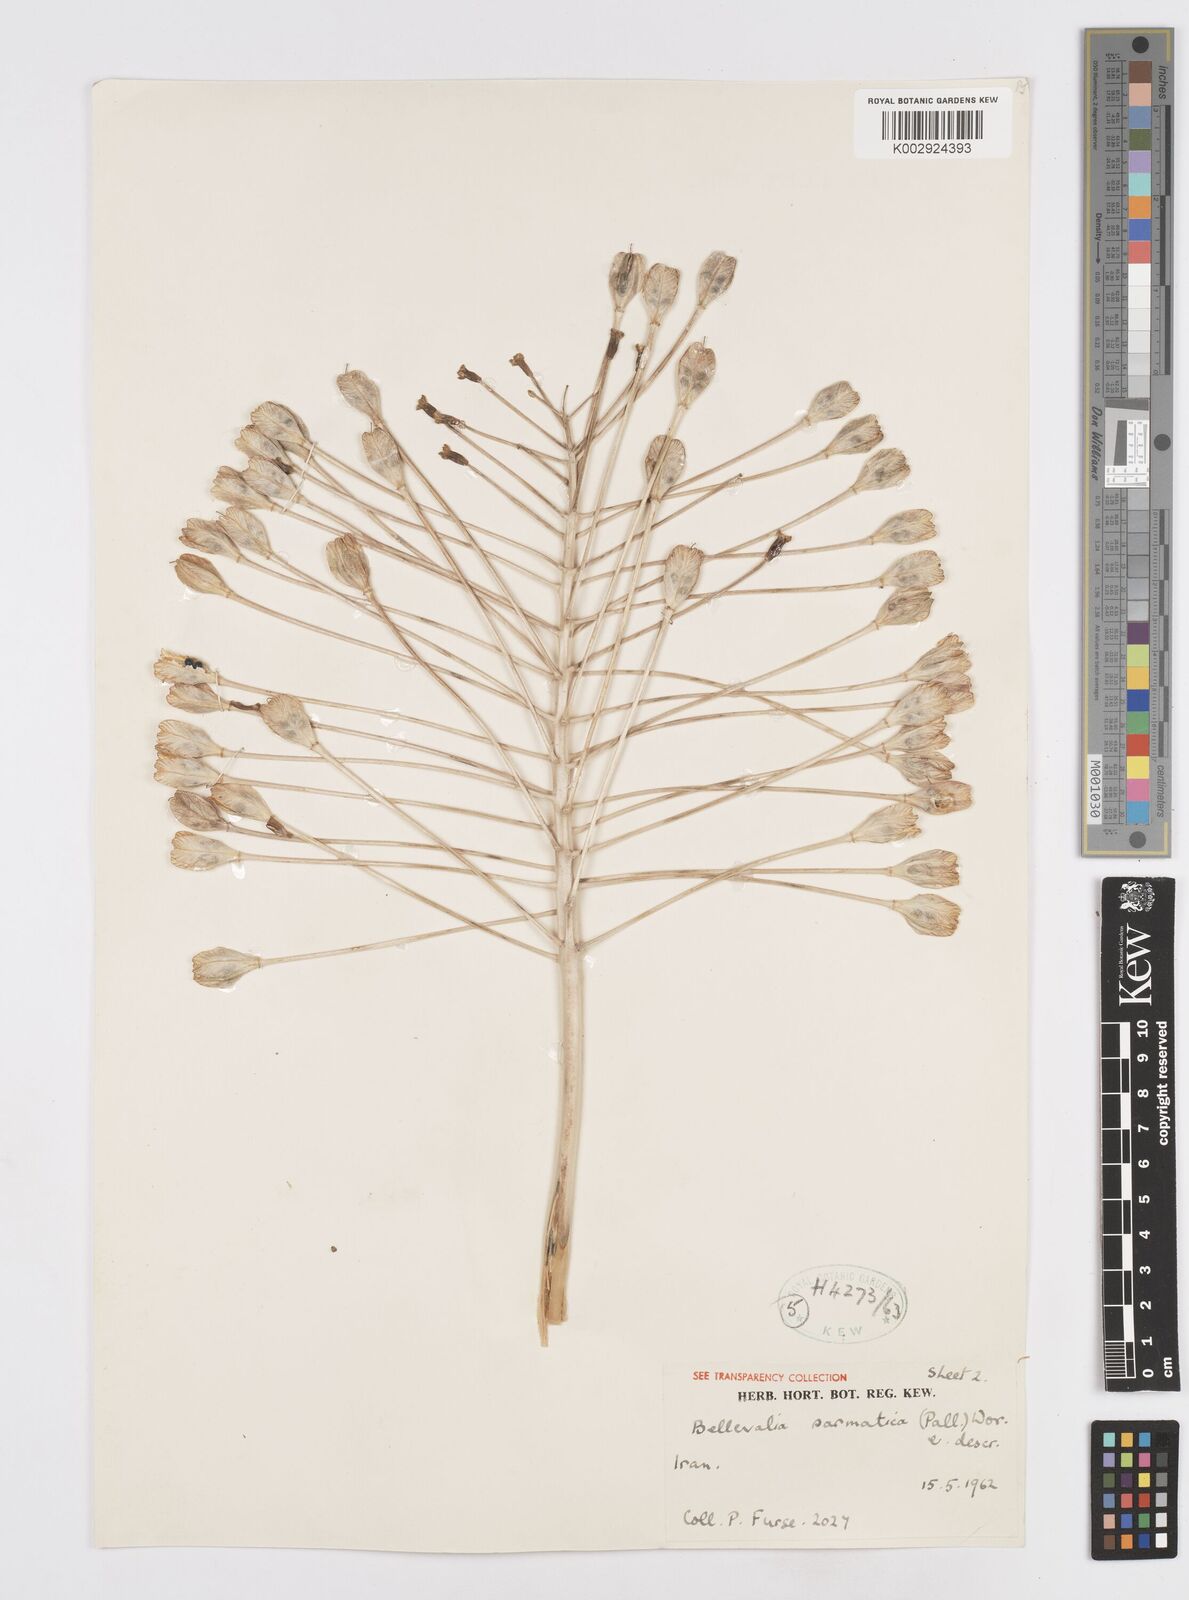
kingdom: Plantae
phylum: Tracheophyta
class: Liliopsida
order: Asparagales
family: Asparagaceae
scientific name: Asparagaceae
